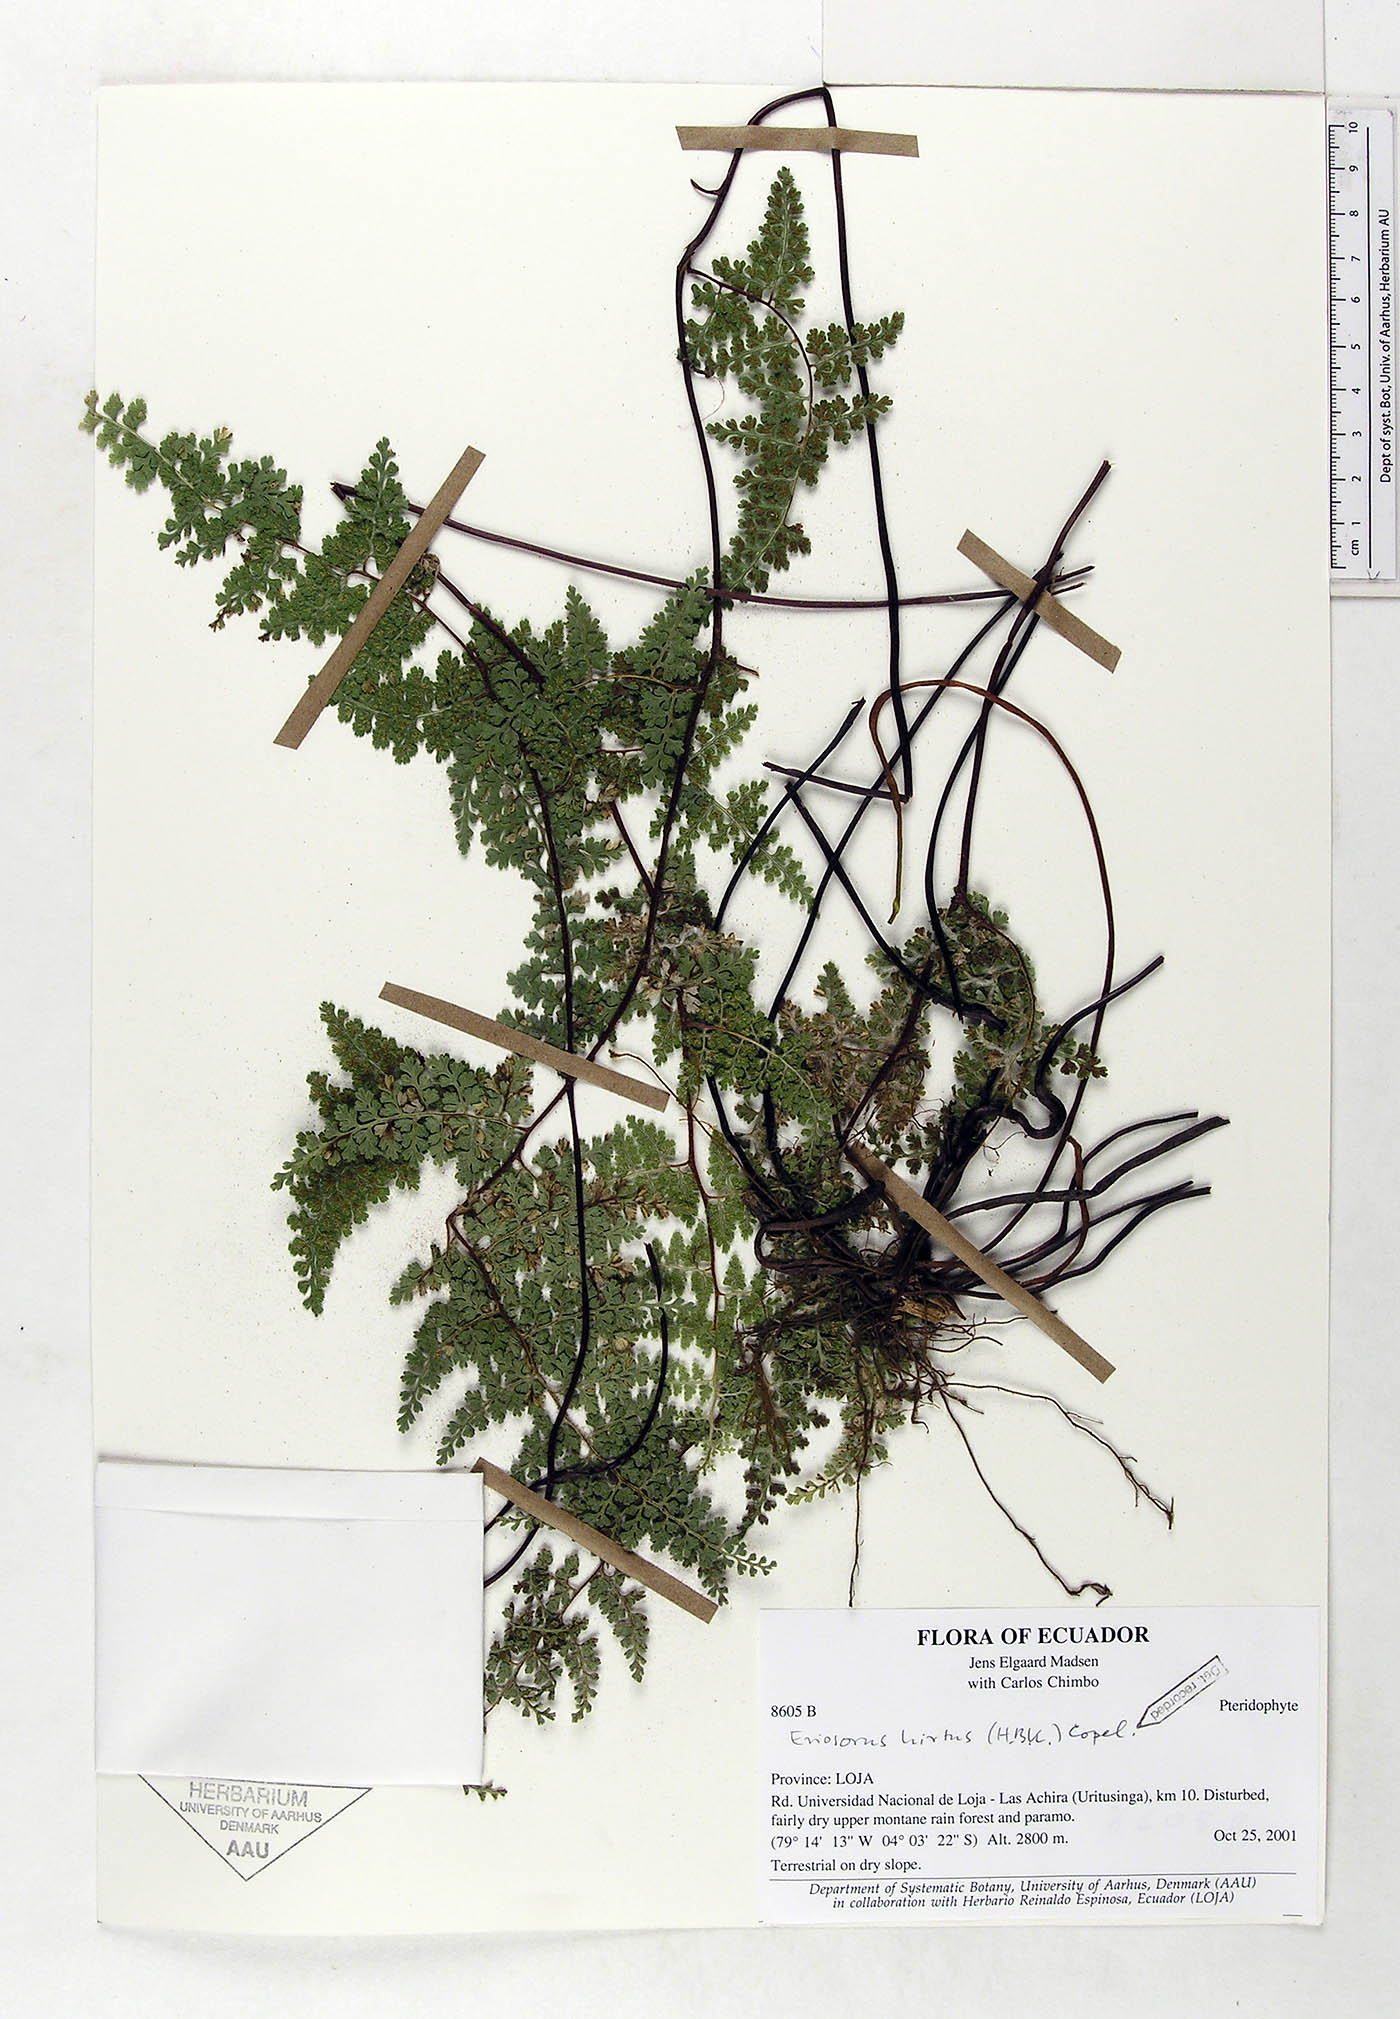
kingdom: Plantae
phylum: Tracheophyta
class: Polypodiopsida
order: Polypodiales
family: Pteridaceae
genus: Jamesonia
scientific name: Jamesonia hirta
